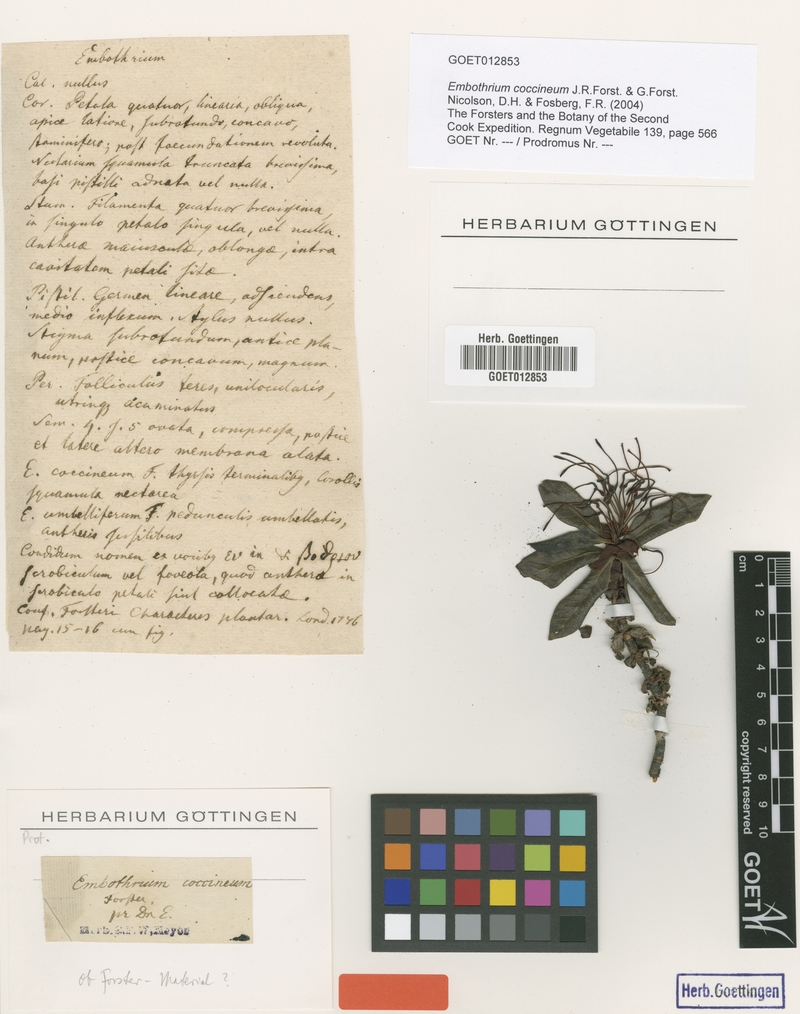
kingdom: Plantae
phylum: Tracheophyta
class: Magnoliopsida
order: Proteales
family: Proteaceae
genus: Embothrium
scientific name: Embothrium coccineum
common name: Chilean firebush
